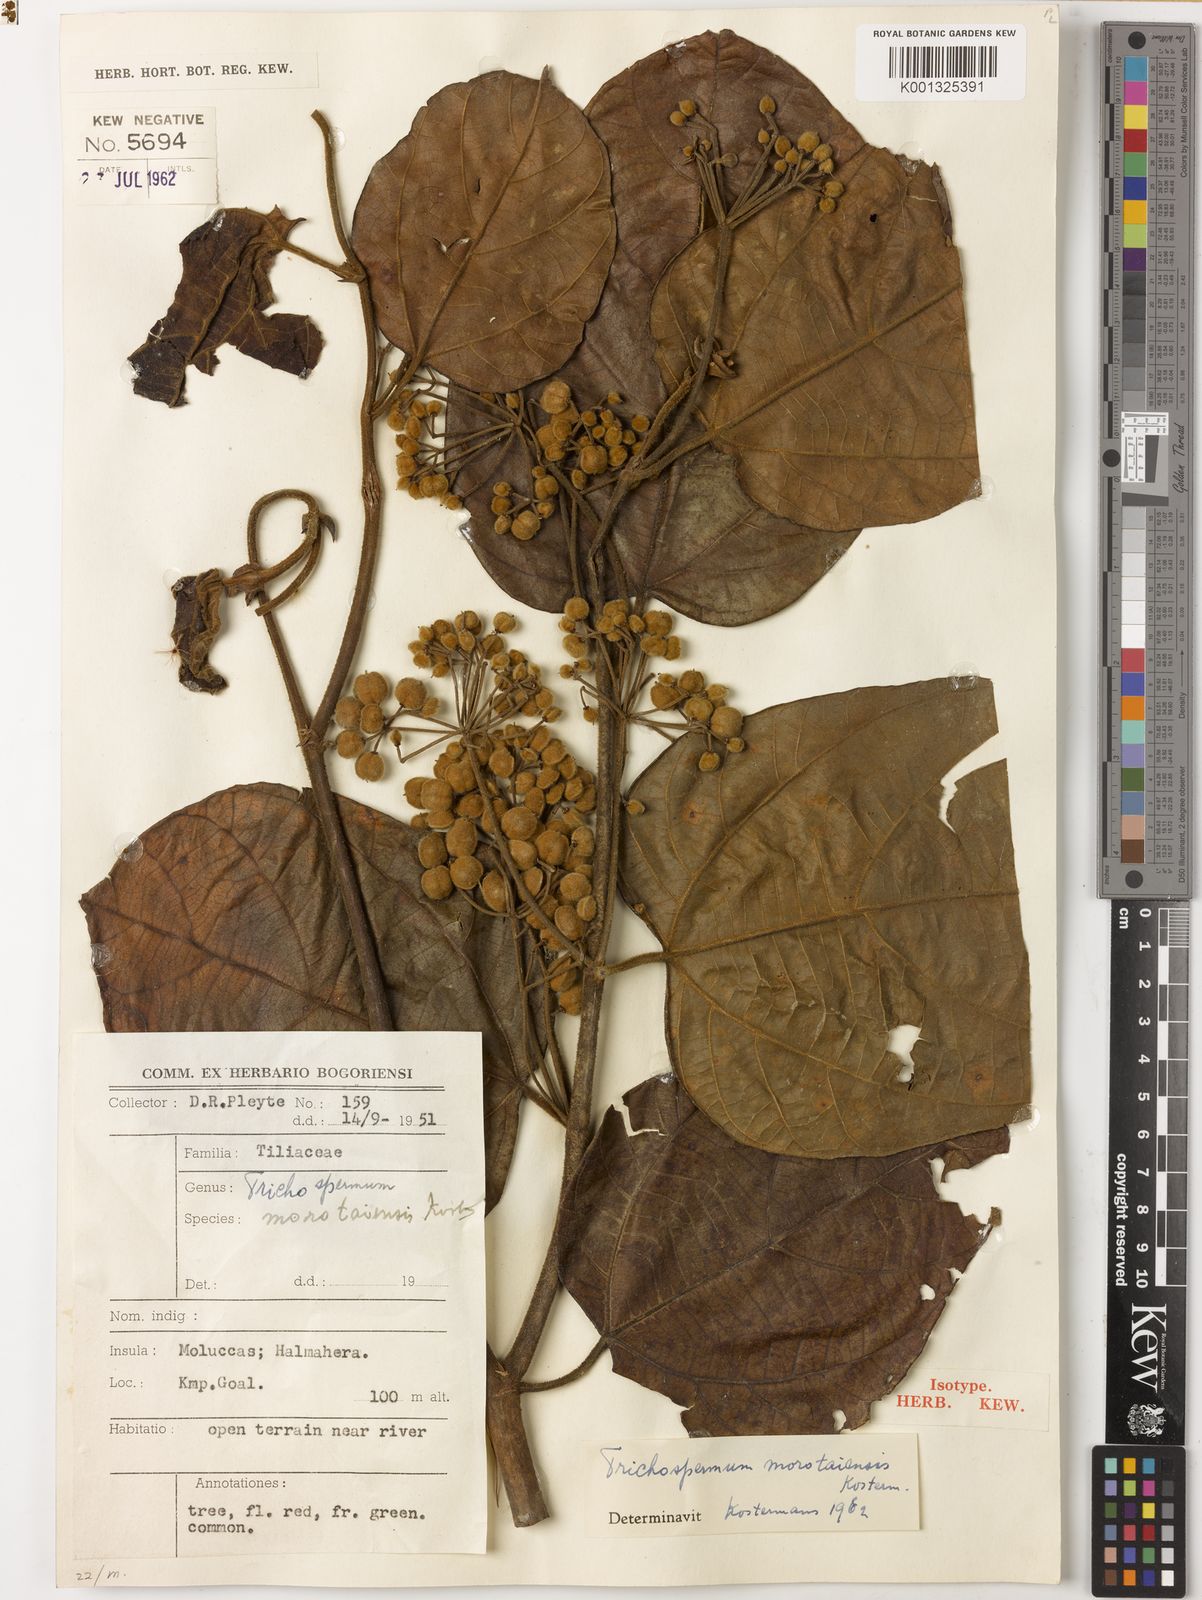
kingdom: Plantae
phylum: Tracheophyta
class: Magnoliopsida
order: Malvales
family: Malvaceae
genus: Trichospermum
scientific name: Trichospermum morotaiense
